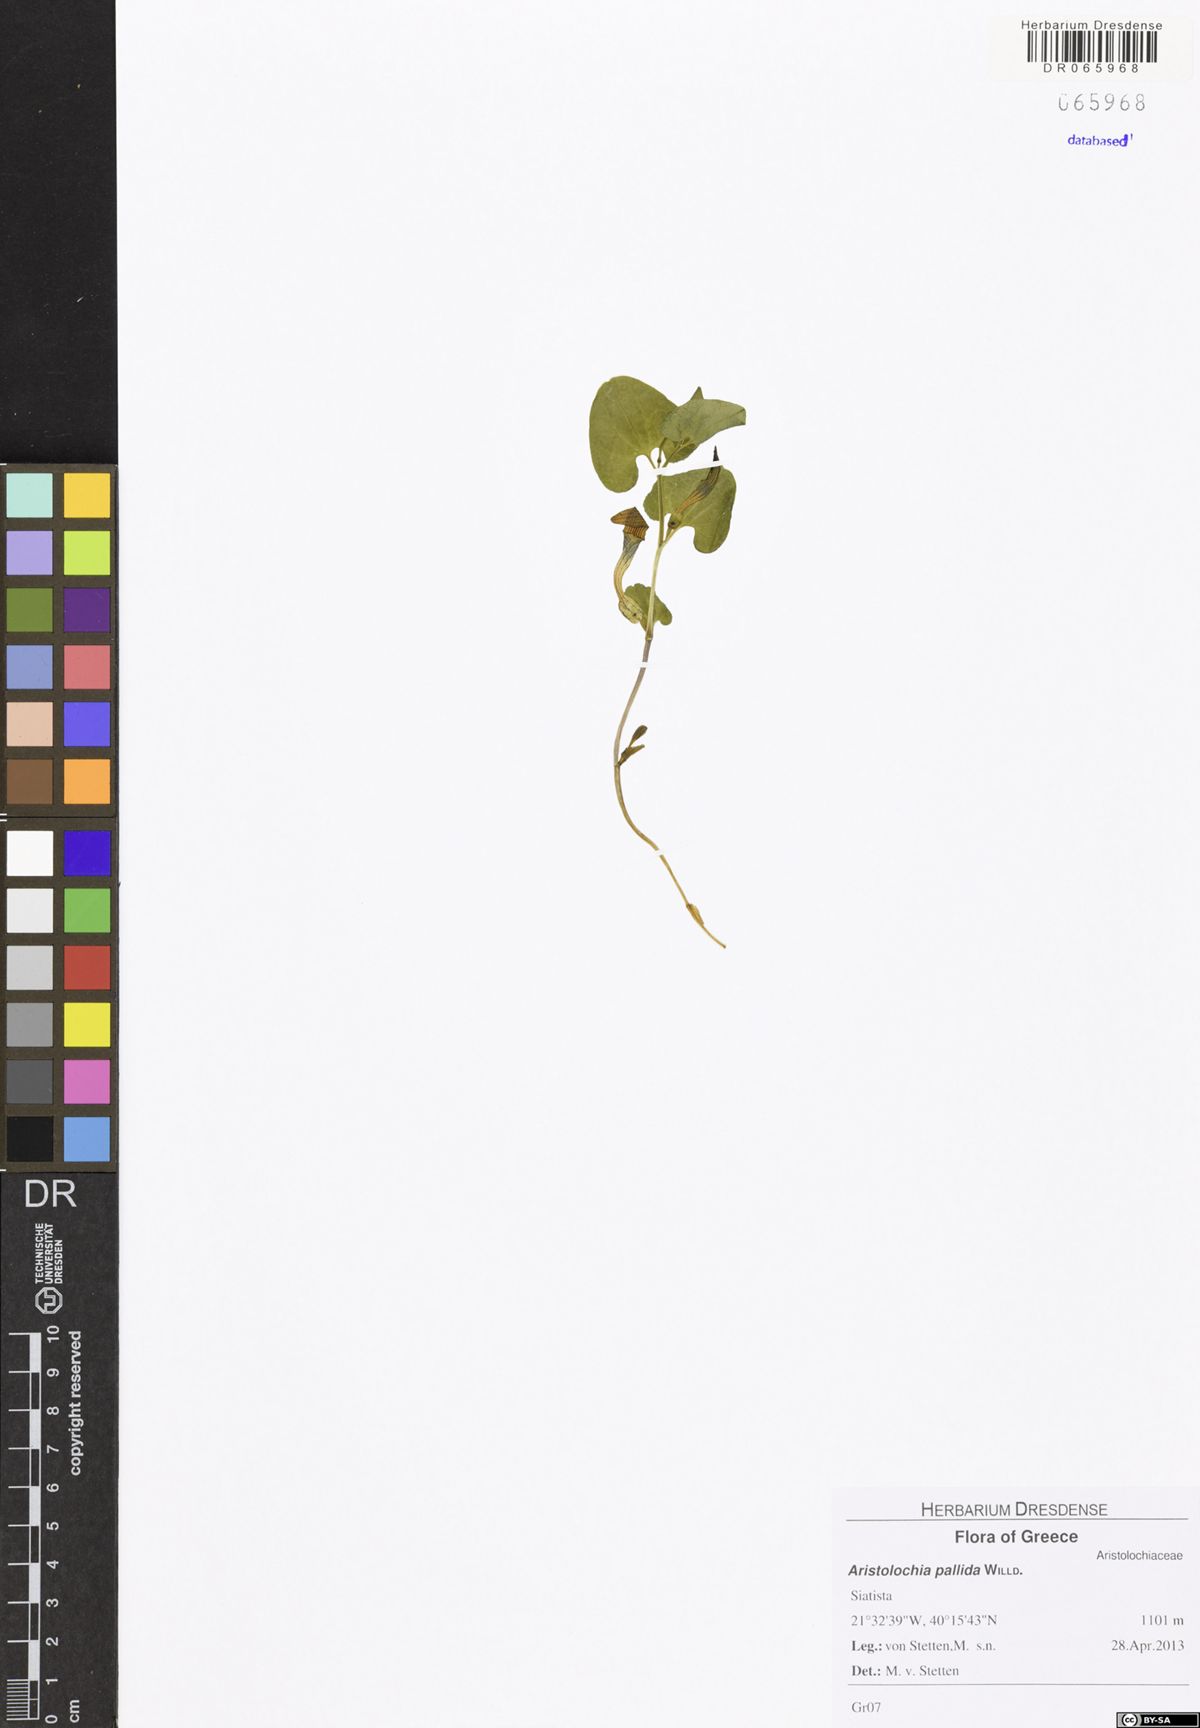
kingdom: Plantae
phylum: Tracheophyta
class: Magnoliopsida
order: Piperales
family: Aristolochiaceae
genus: Aristolochia
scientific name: Aristolochia pallida
